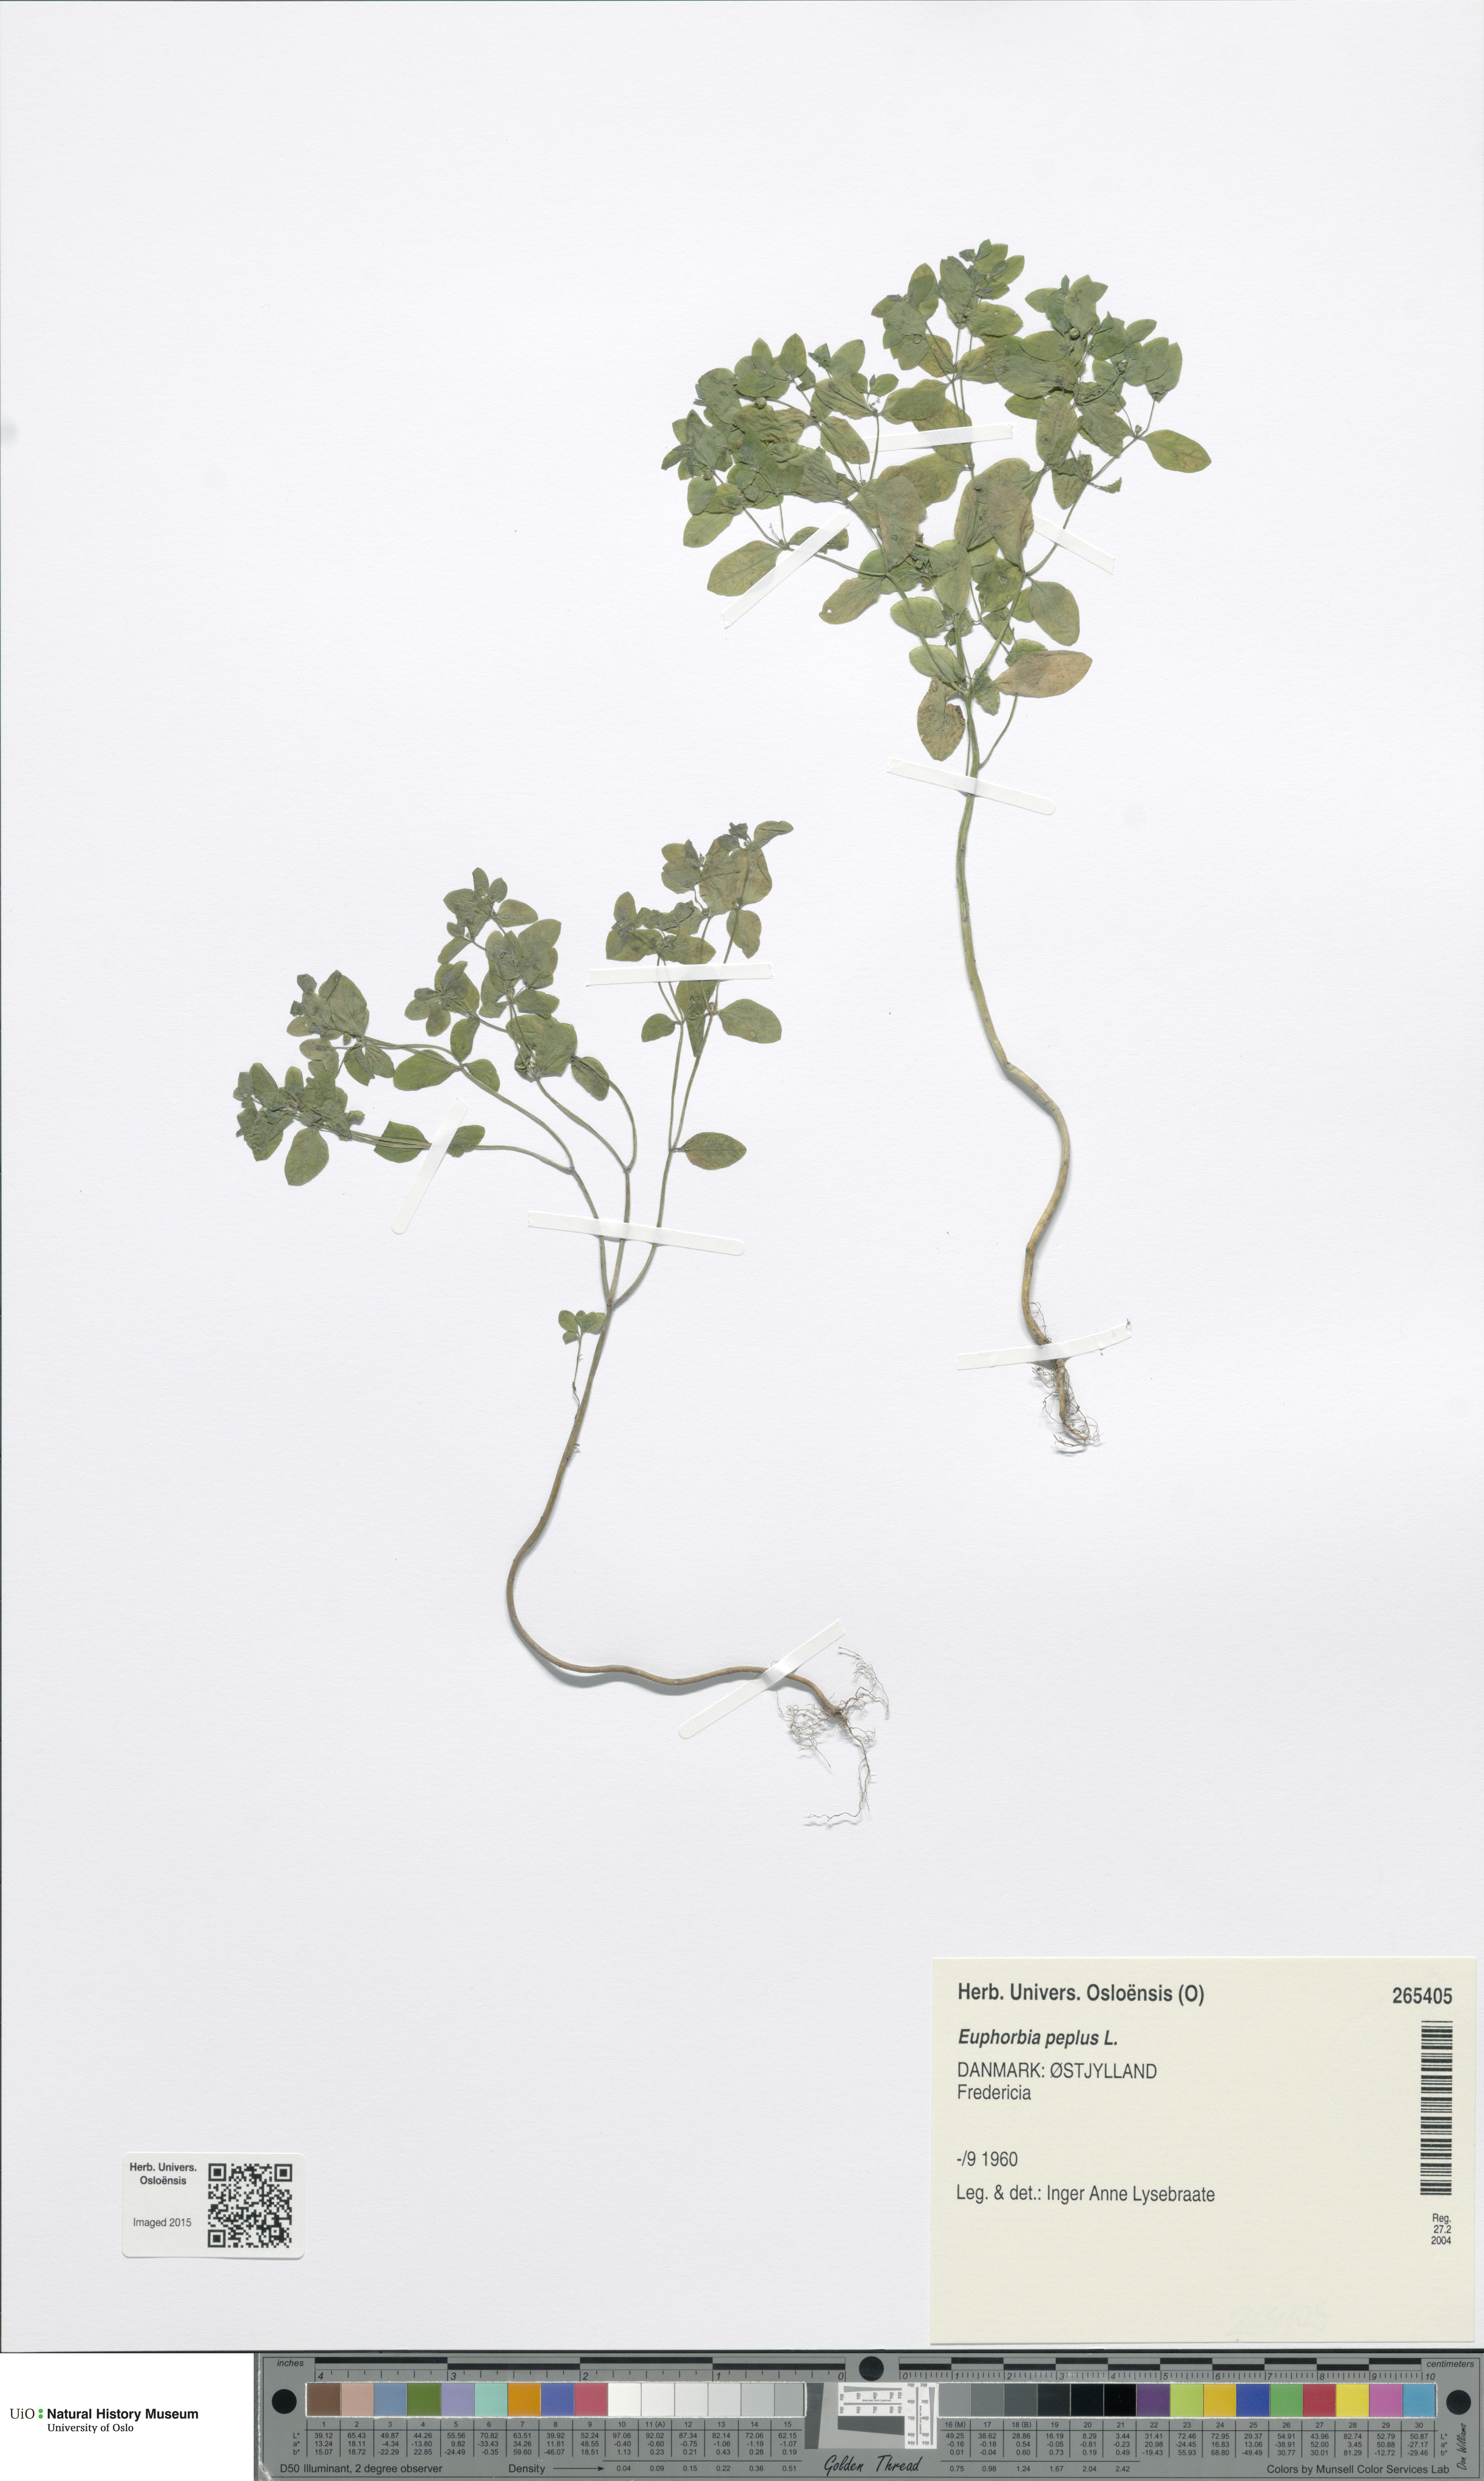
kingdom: Plantae
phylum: Tracheophyta
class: Magnoliopsida
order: Malpighiales
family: Euphorbiaceae
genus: Euphorbia
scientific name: Euphorbia peplus
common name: Petty spurge
